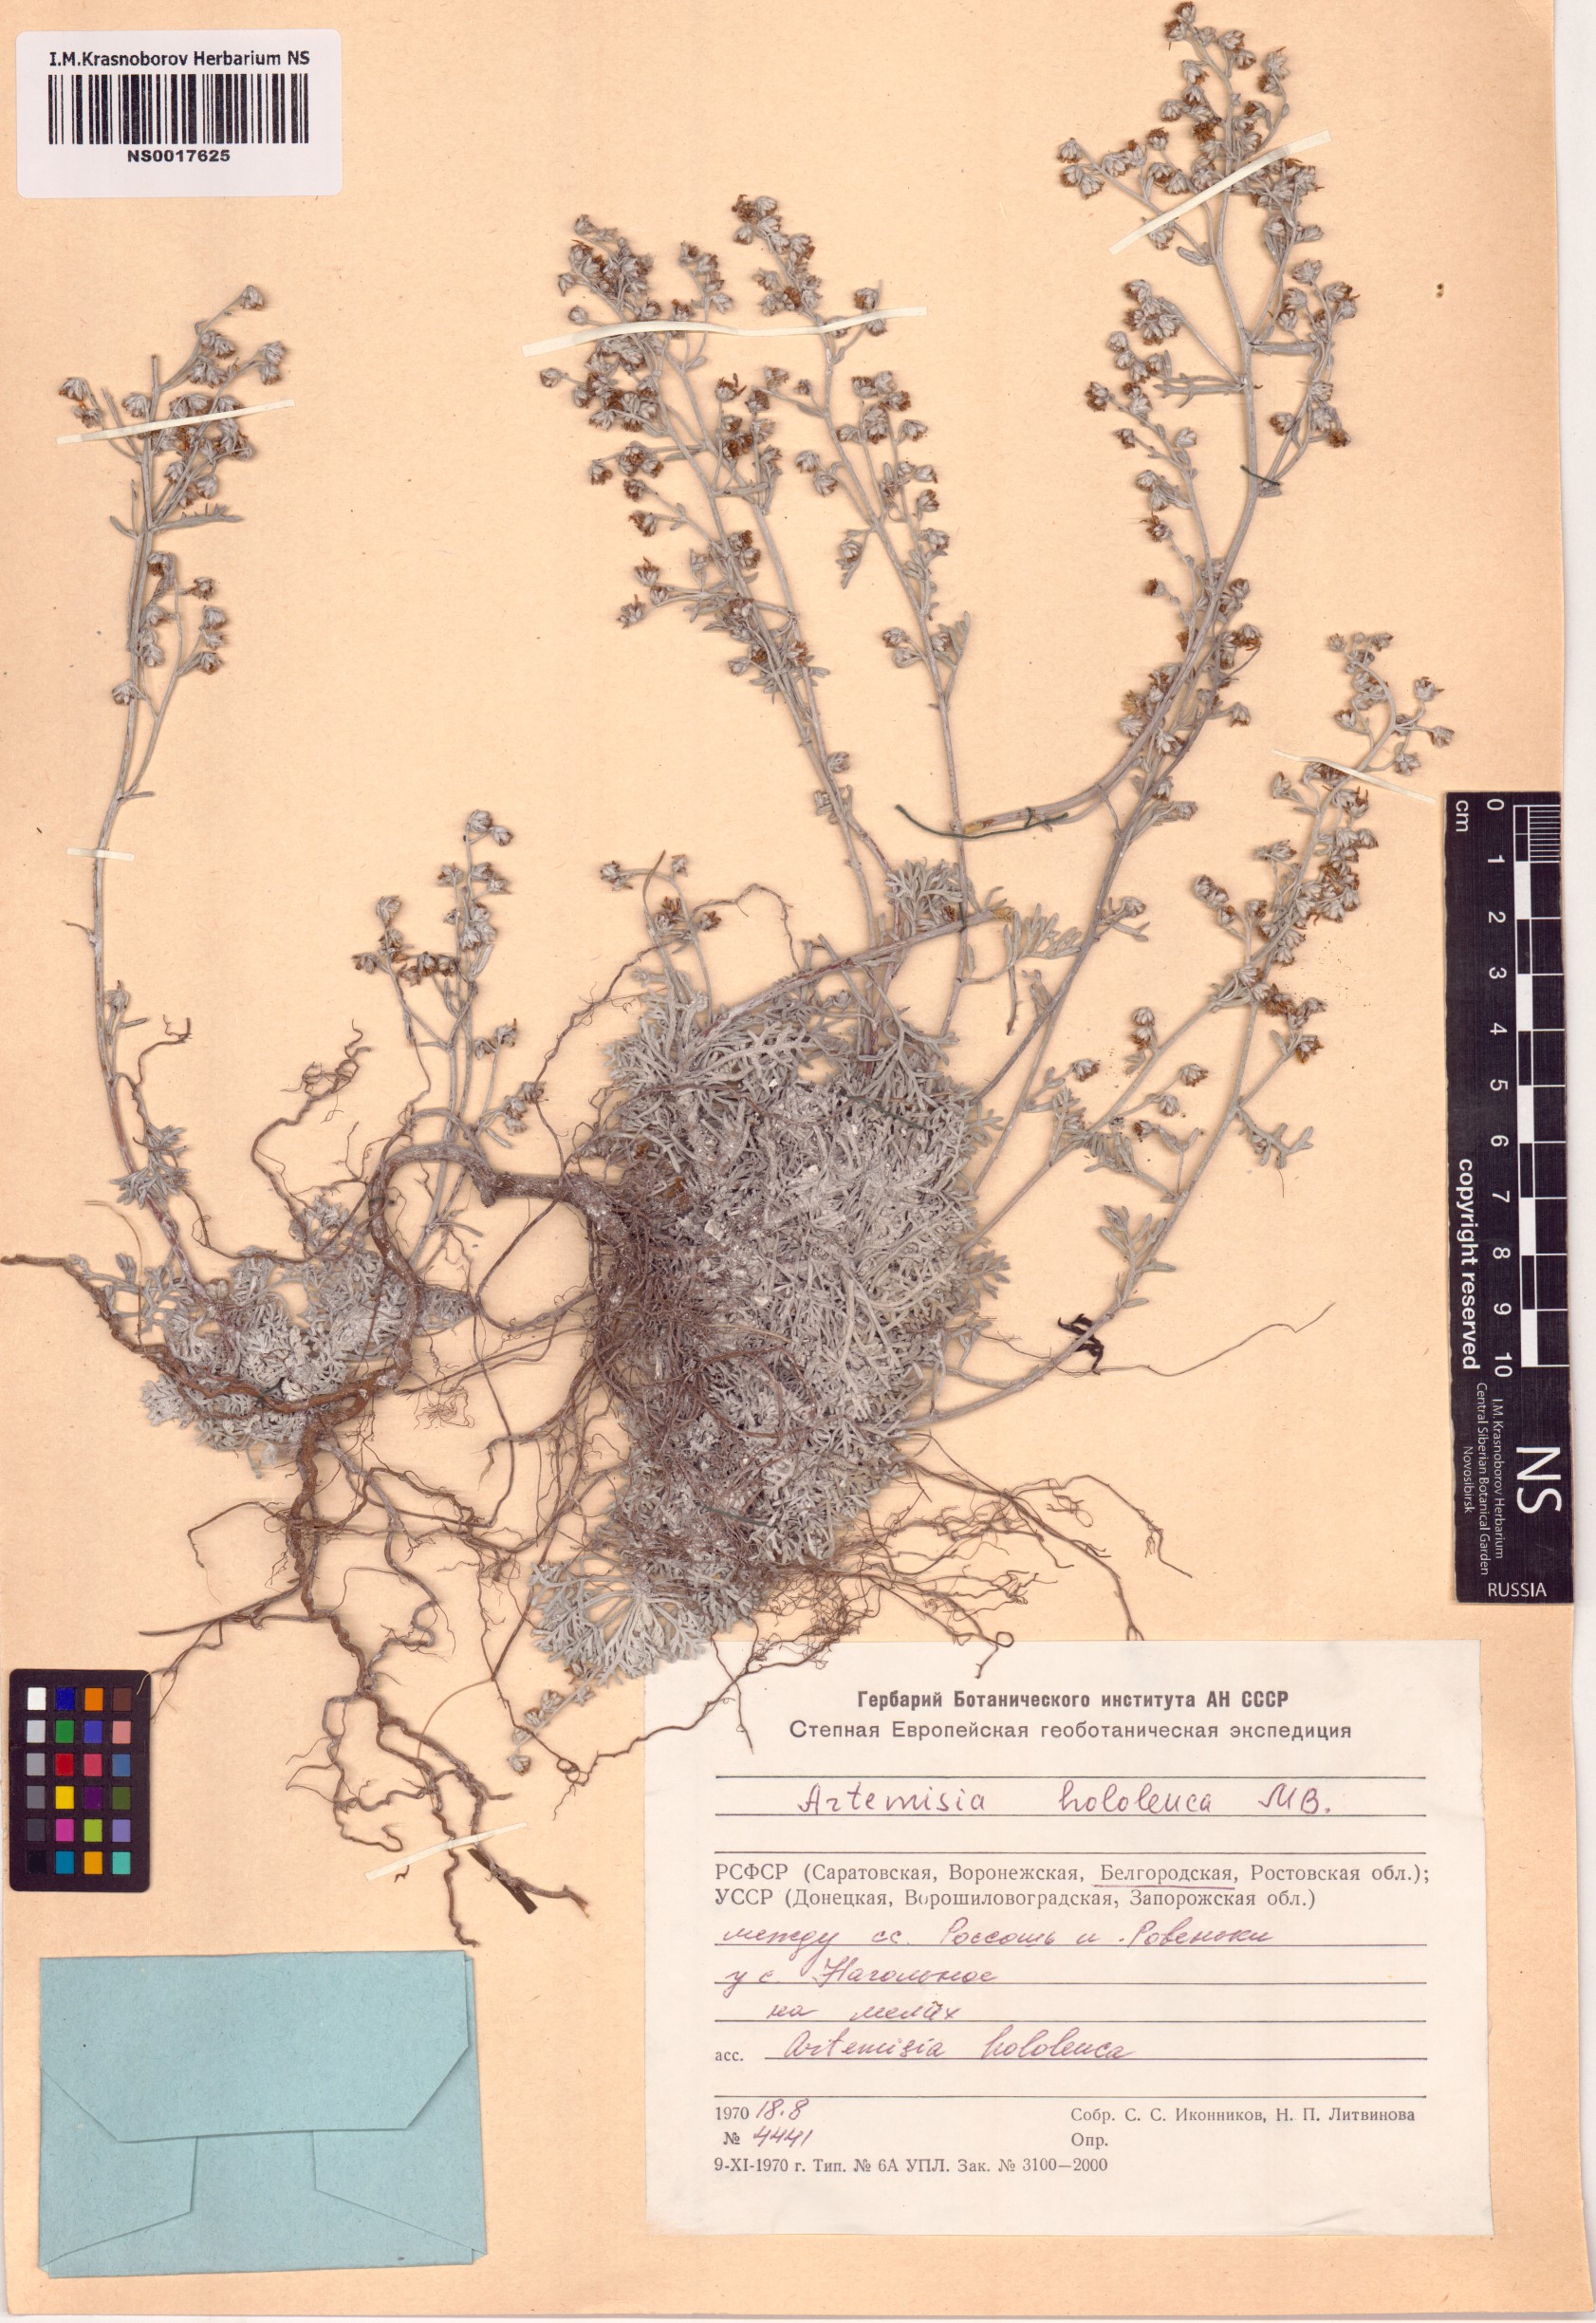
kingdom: Plantae
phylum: Tracheophyta
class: Magnoliopsida
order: Asterales
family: Asteraceae
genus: Artemisia
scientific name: Artemisia hololeuca
